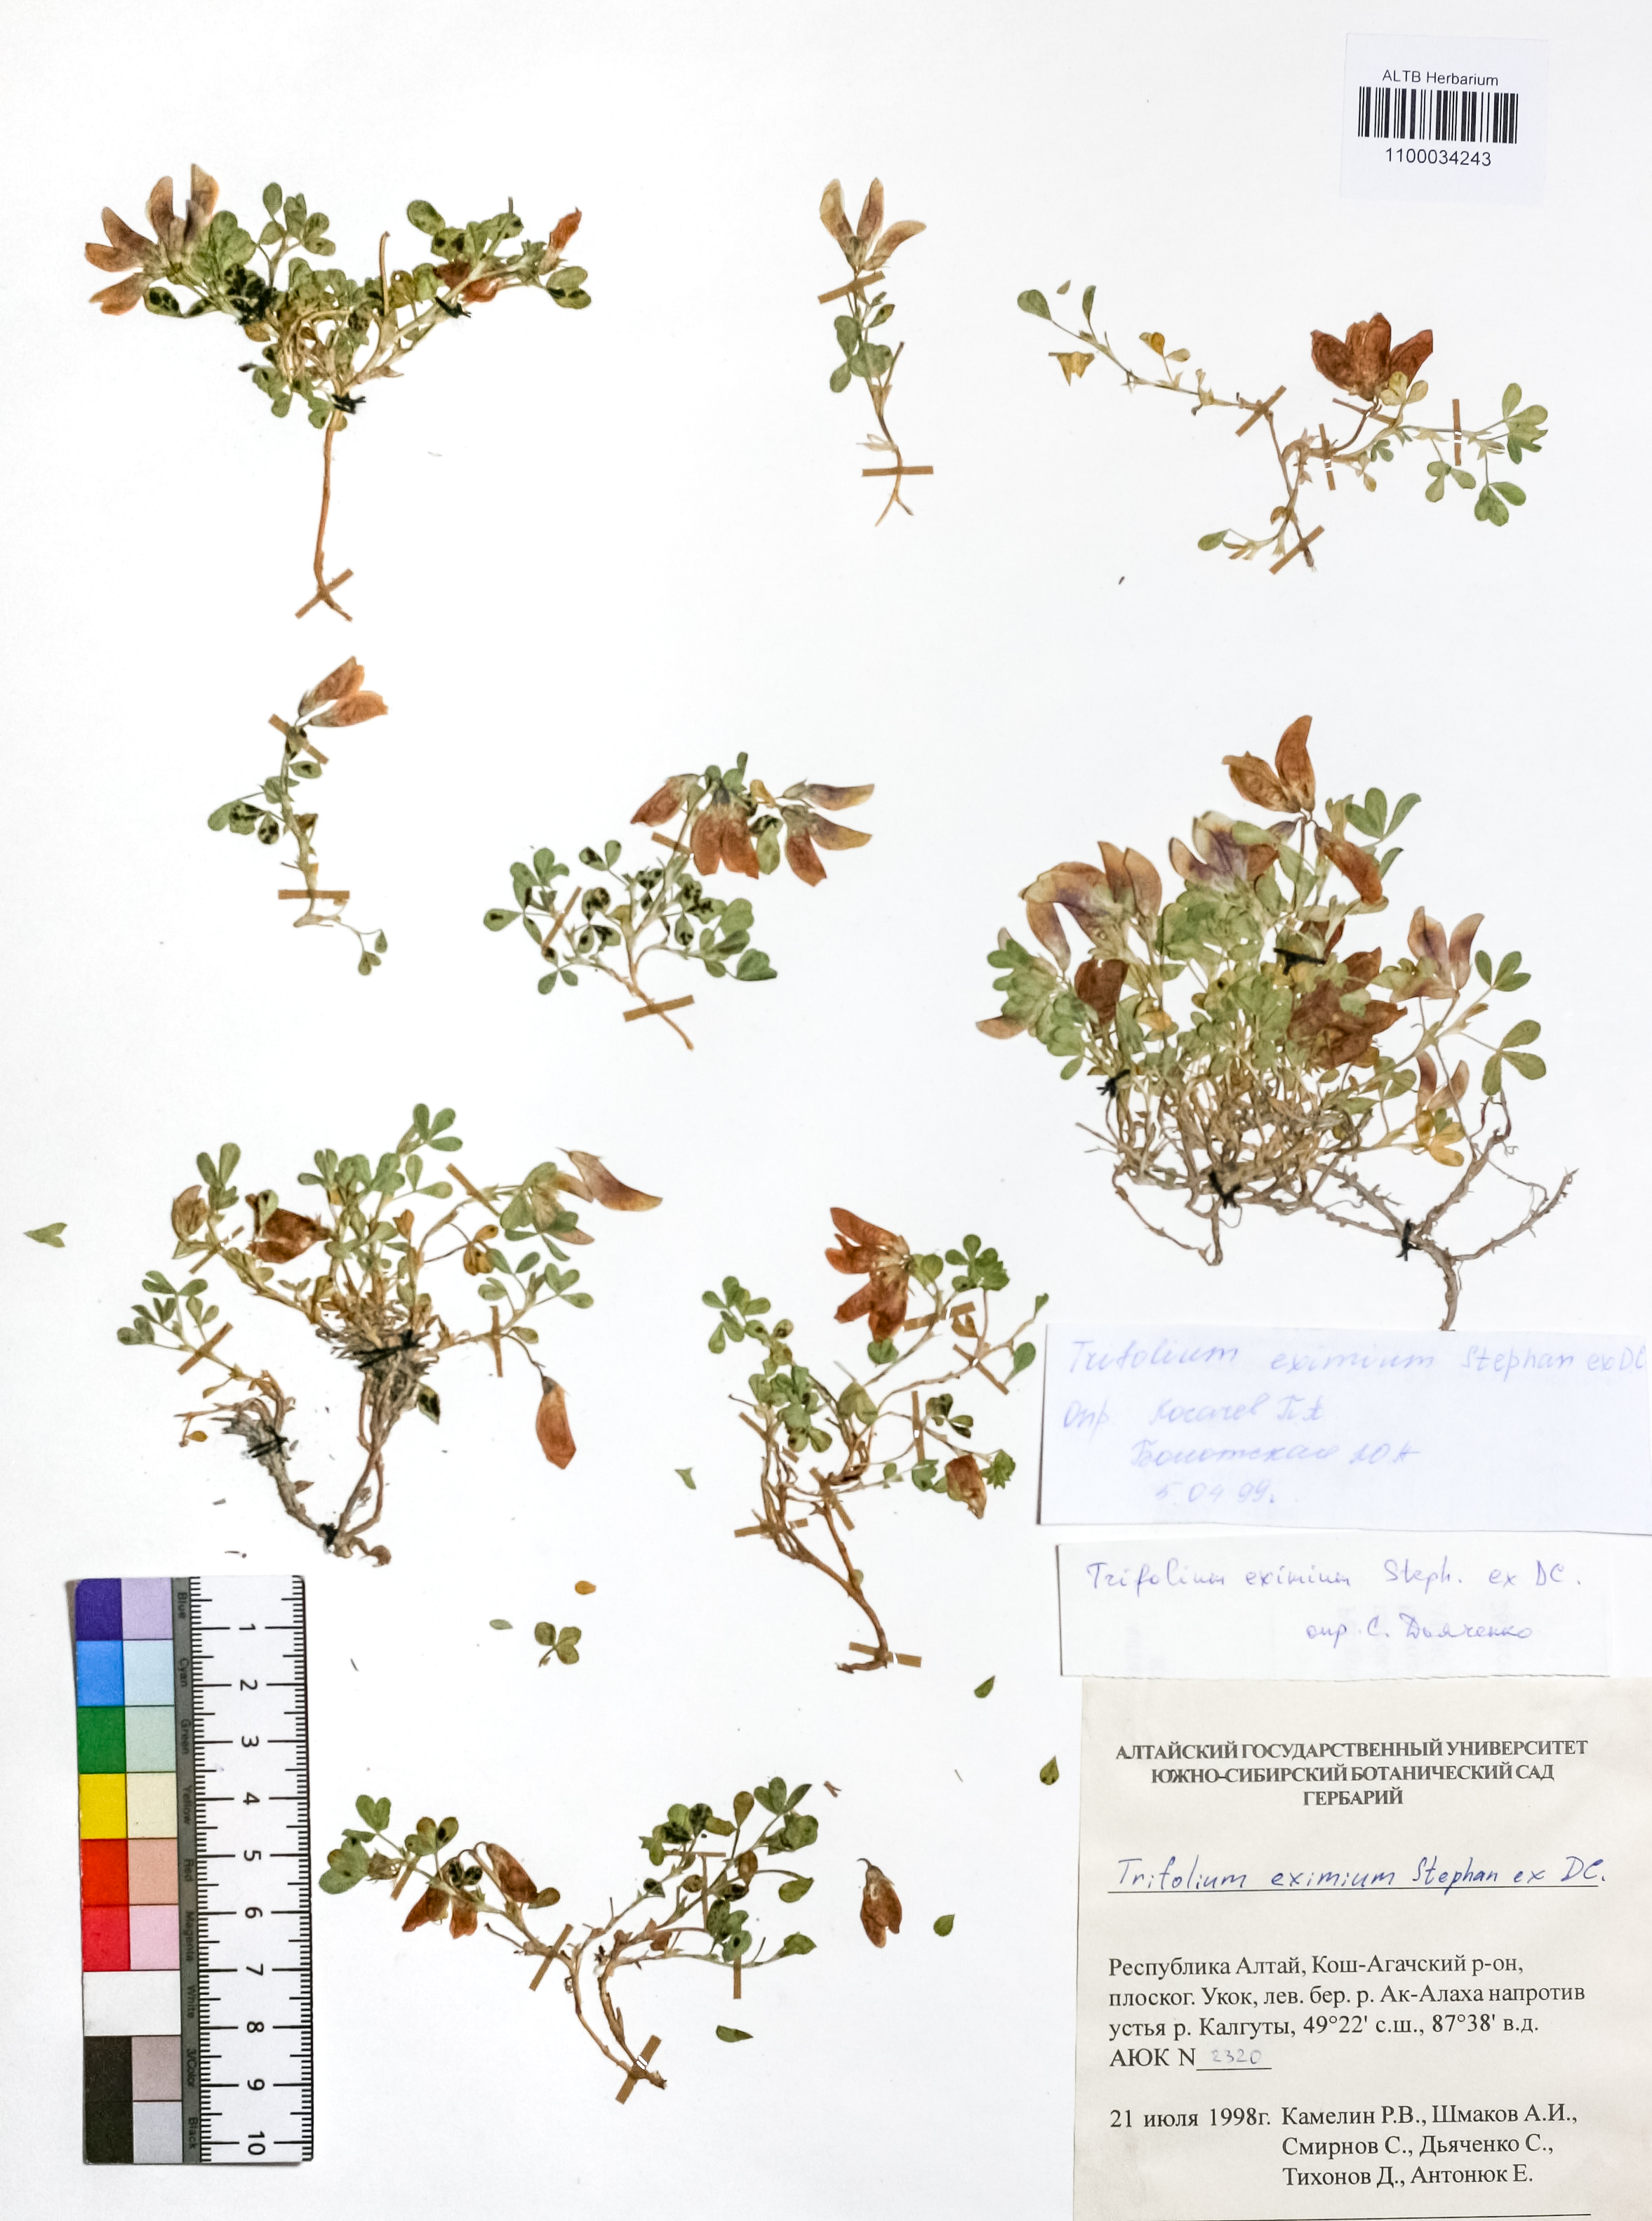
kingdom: Plantae
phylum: Tracheophyta
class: Magnoliopsida
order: Fabales
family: Fabaceae
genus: Trifolium
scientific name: Trifolium eximium
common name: Excellent clover
